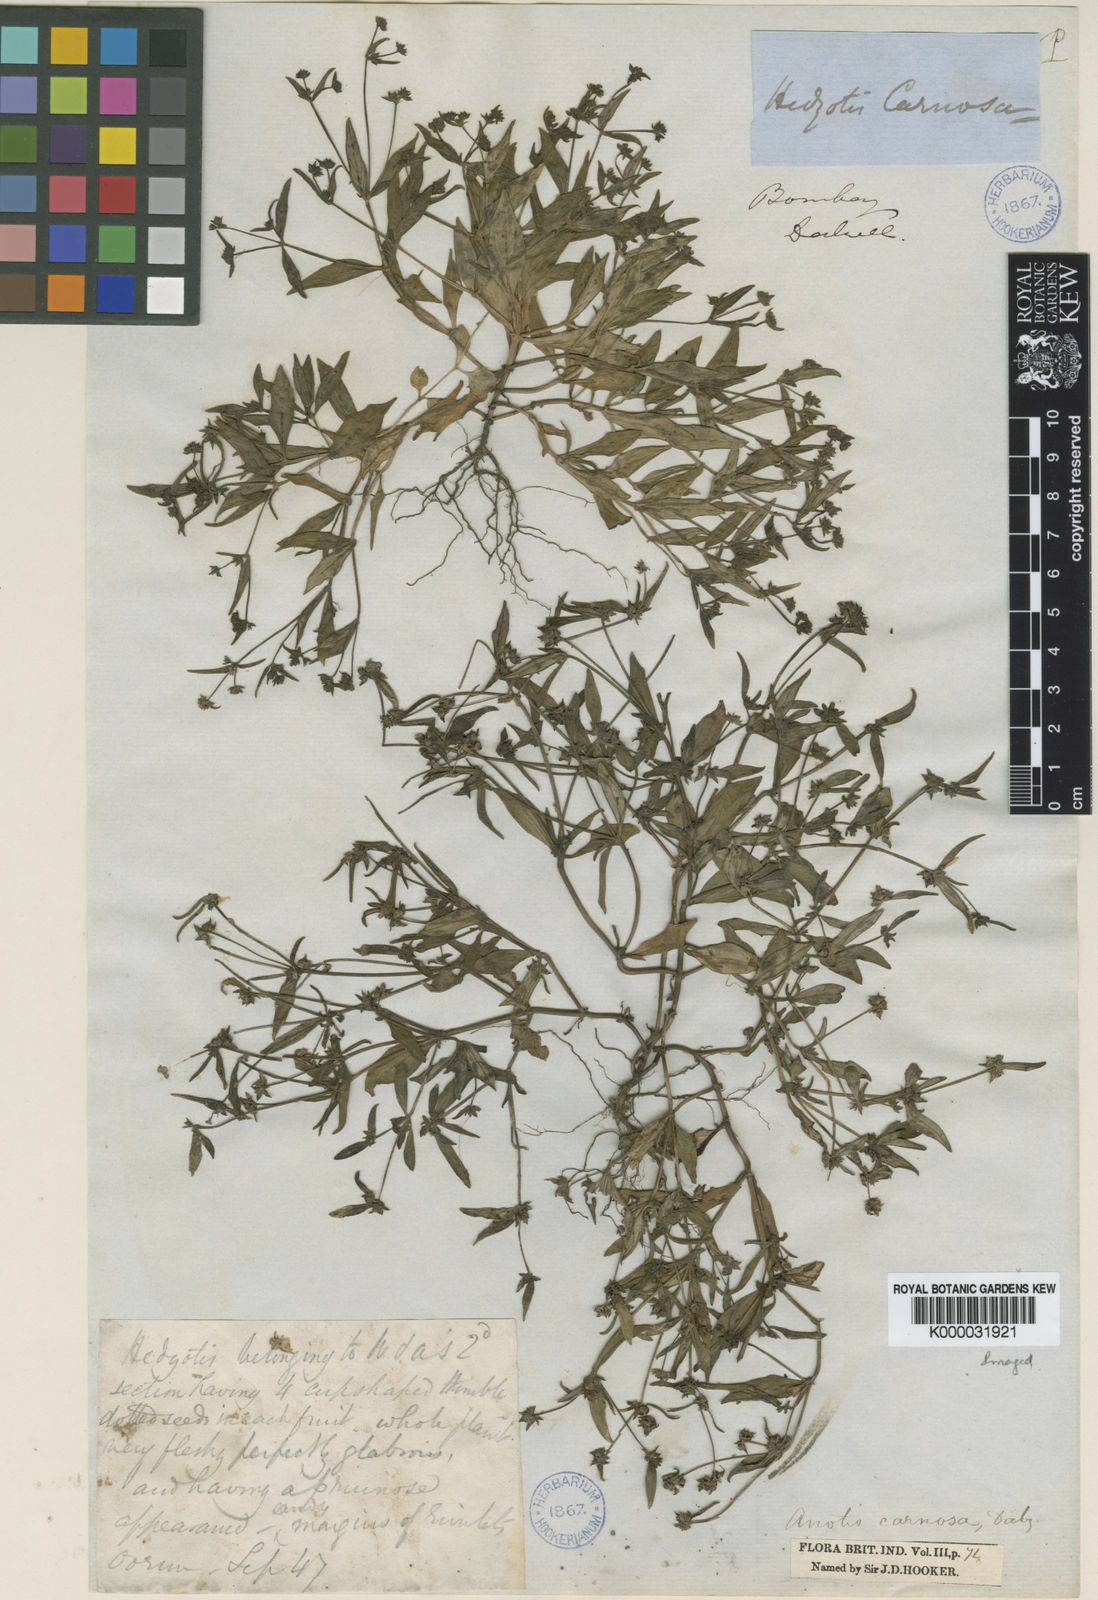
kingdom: Plantae
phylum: Tracheophyta
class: Magnoliopsida
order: Gentianales
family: Rubiaceae
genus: Neanotis
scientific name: Neanotis carnosa
